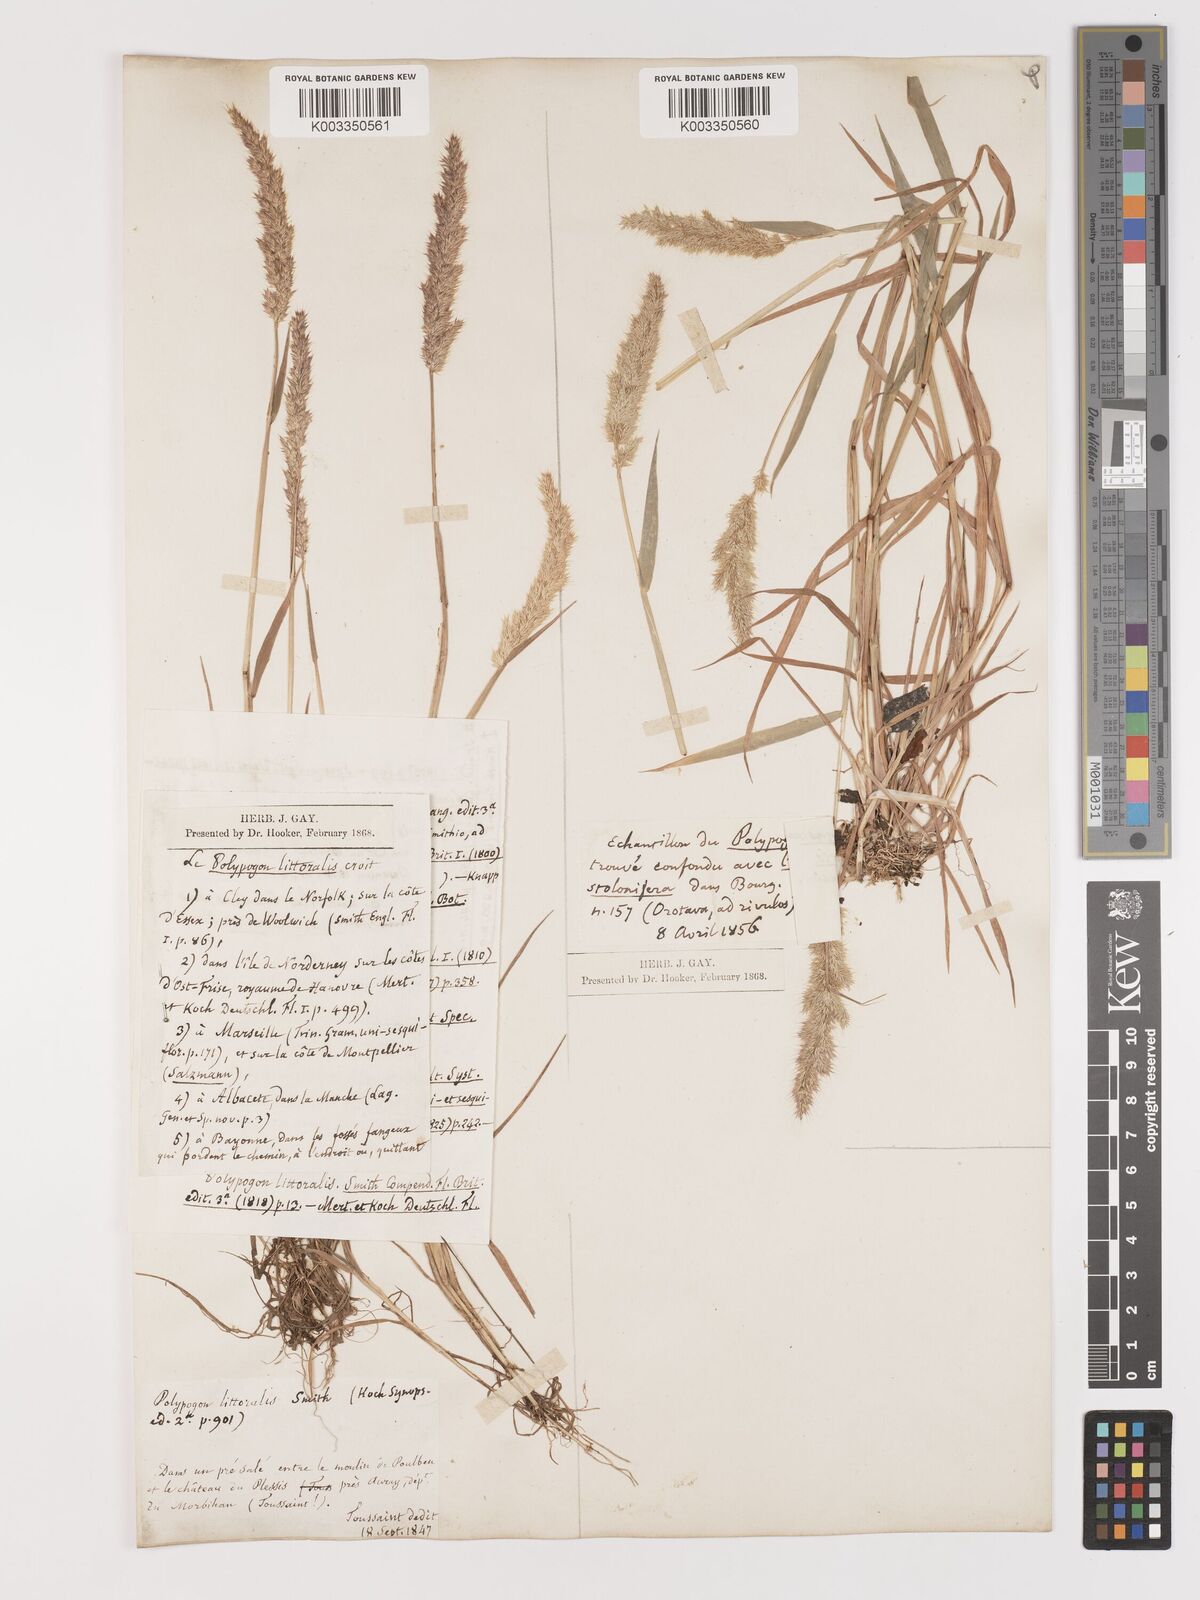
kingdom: Plantae
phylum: Tracheophyta
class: Liliopsida
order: Poales
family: Poaceae
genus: Agropogon
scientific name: Agropogon lutosus
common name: Coast agropogon
